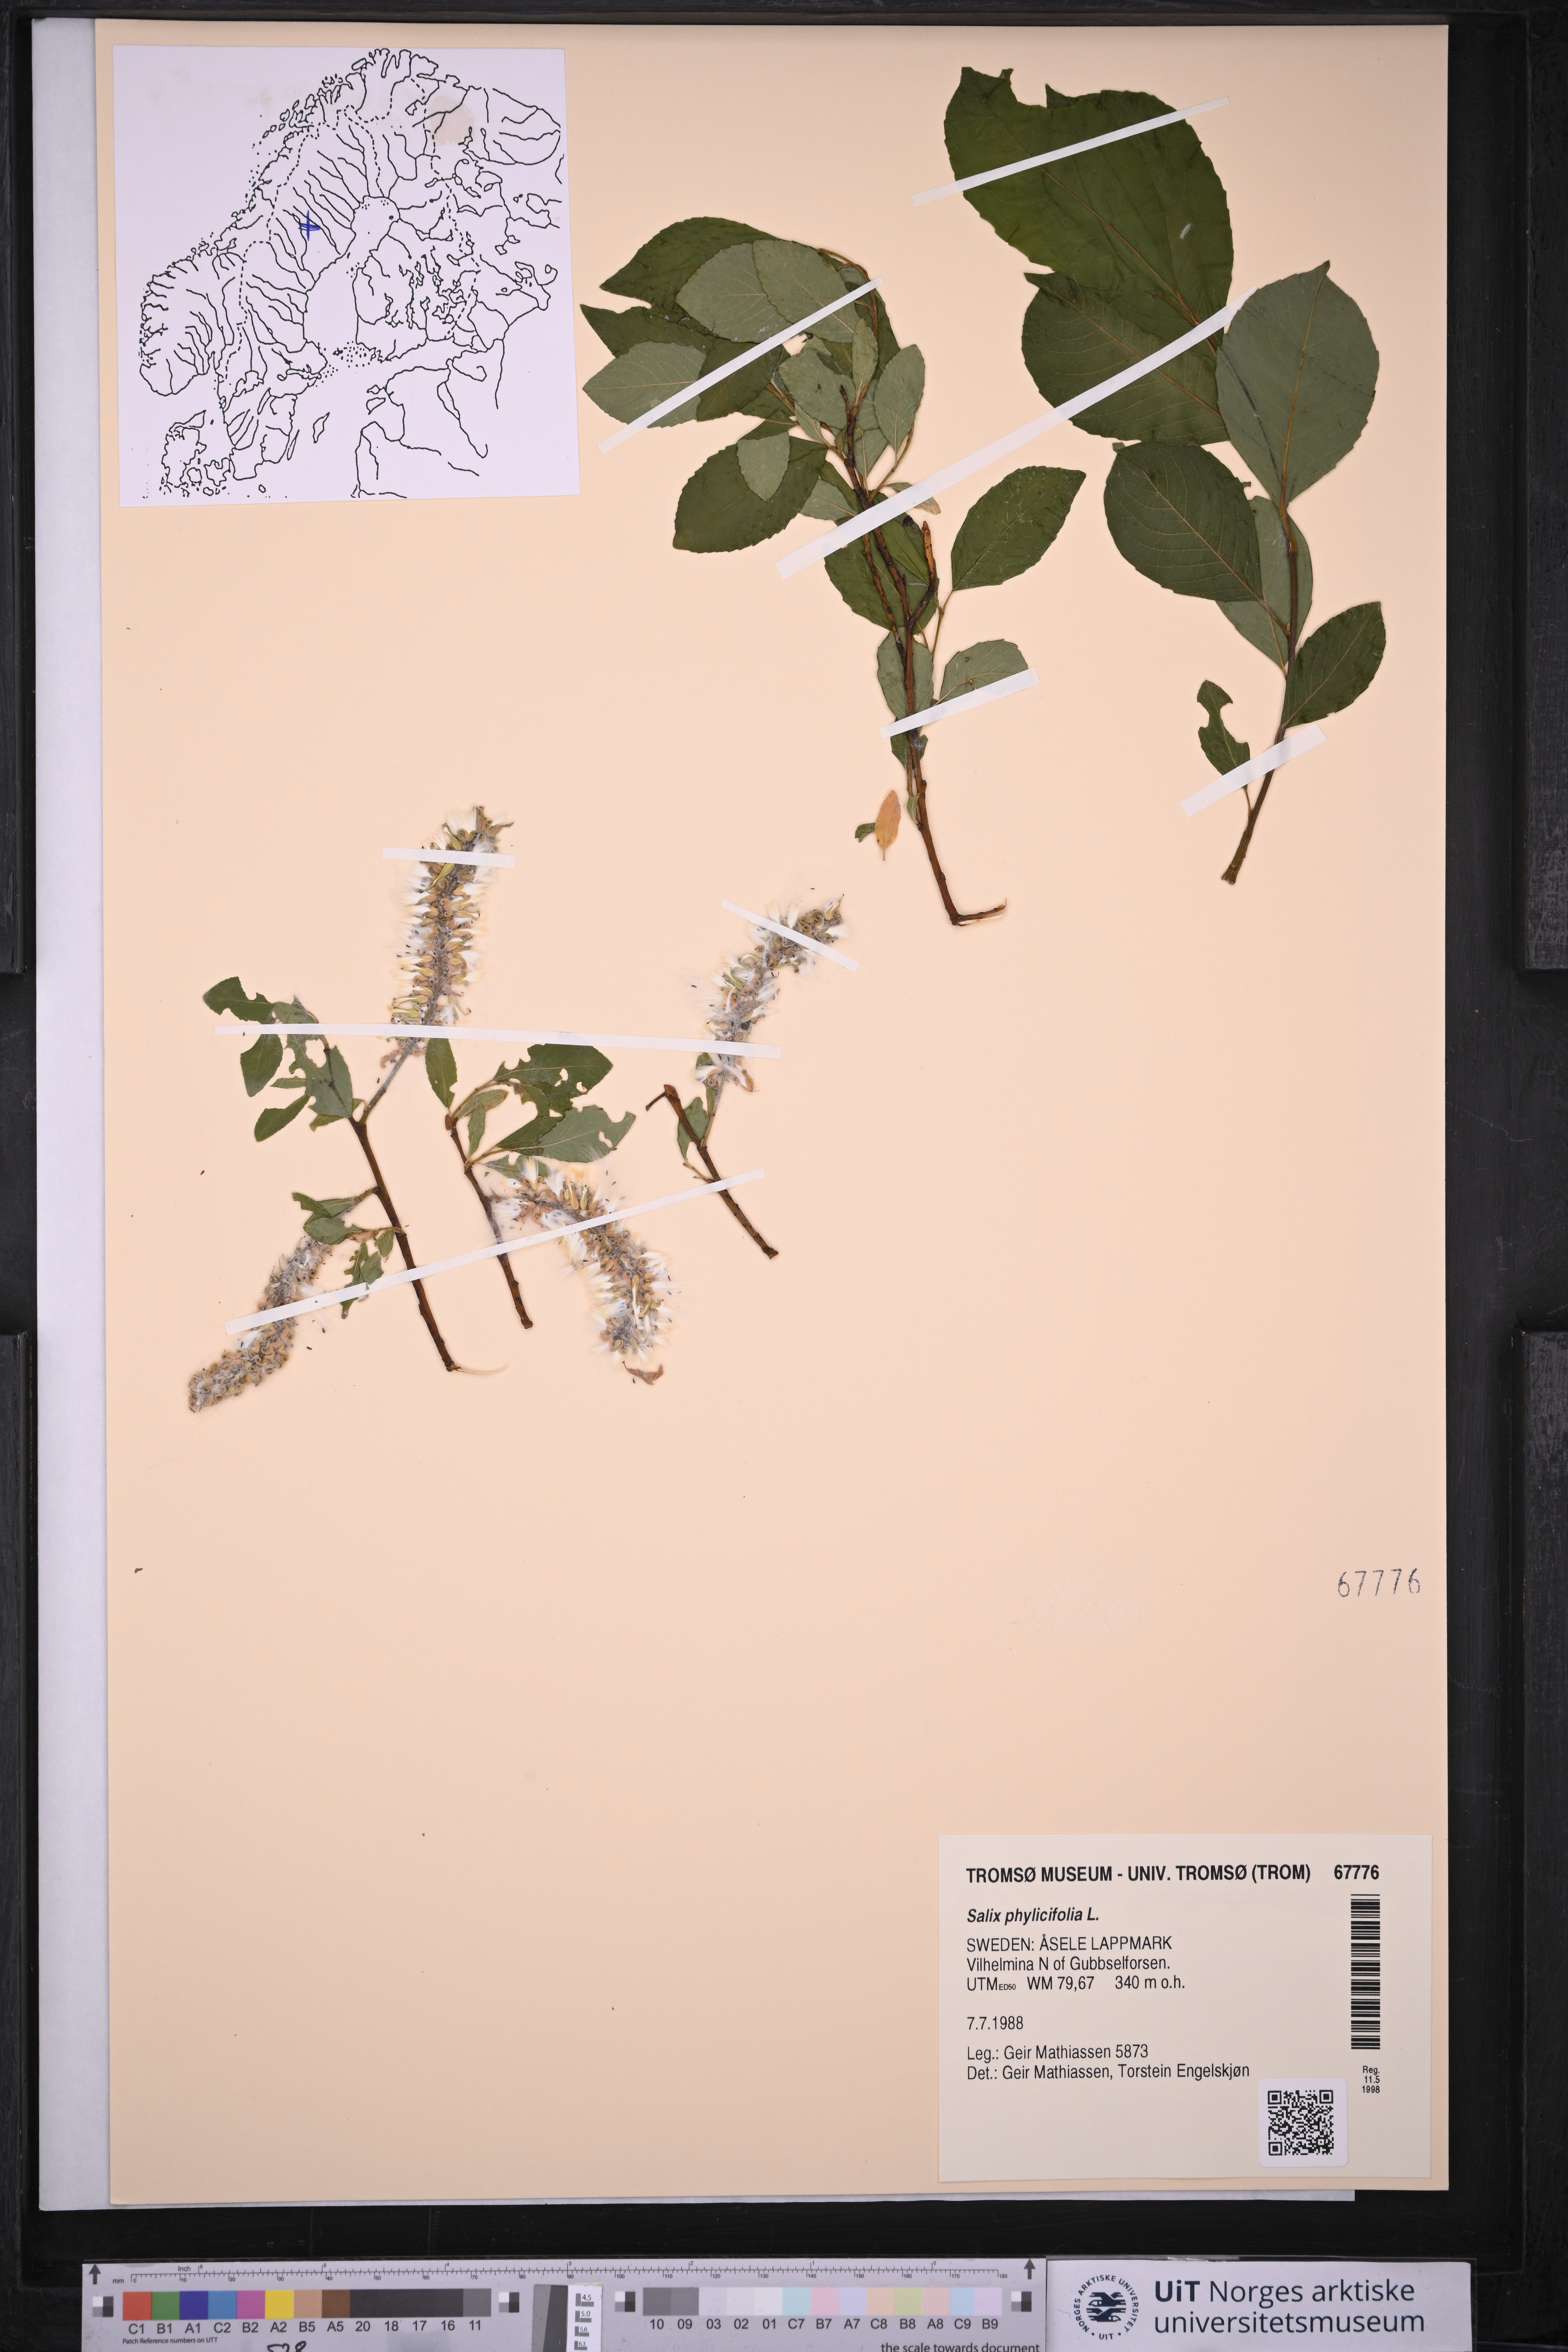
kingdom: Plantae
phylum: Tracheophyta
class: Magnoliopsida
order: Malpighiales
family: Salicaceae
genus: Salix
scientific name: Salix phylicifolia
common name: Tea-leaved willow
